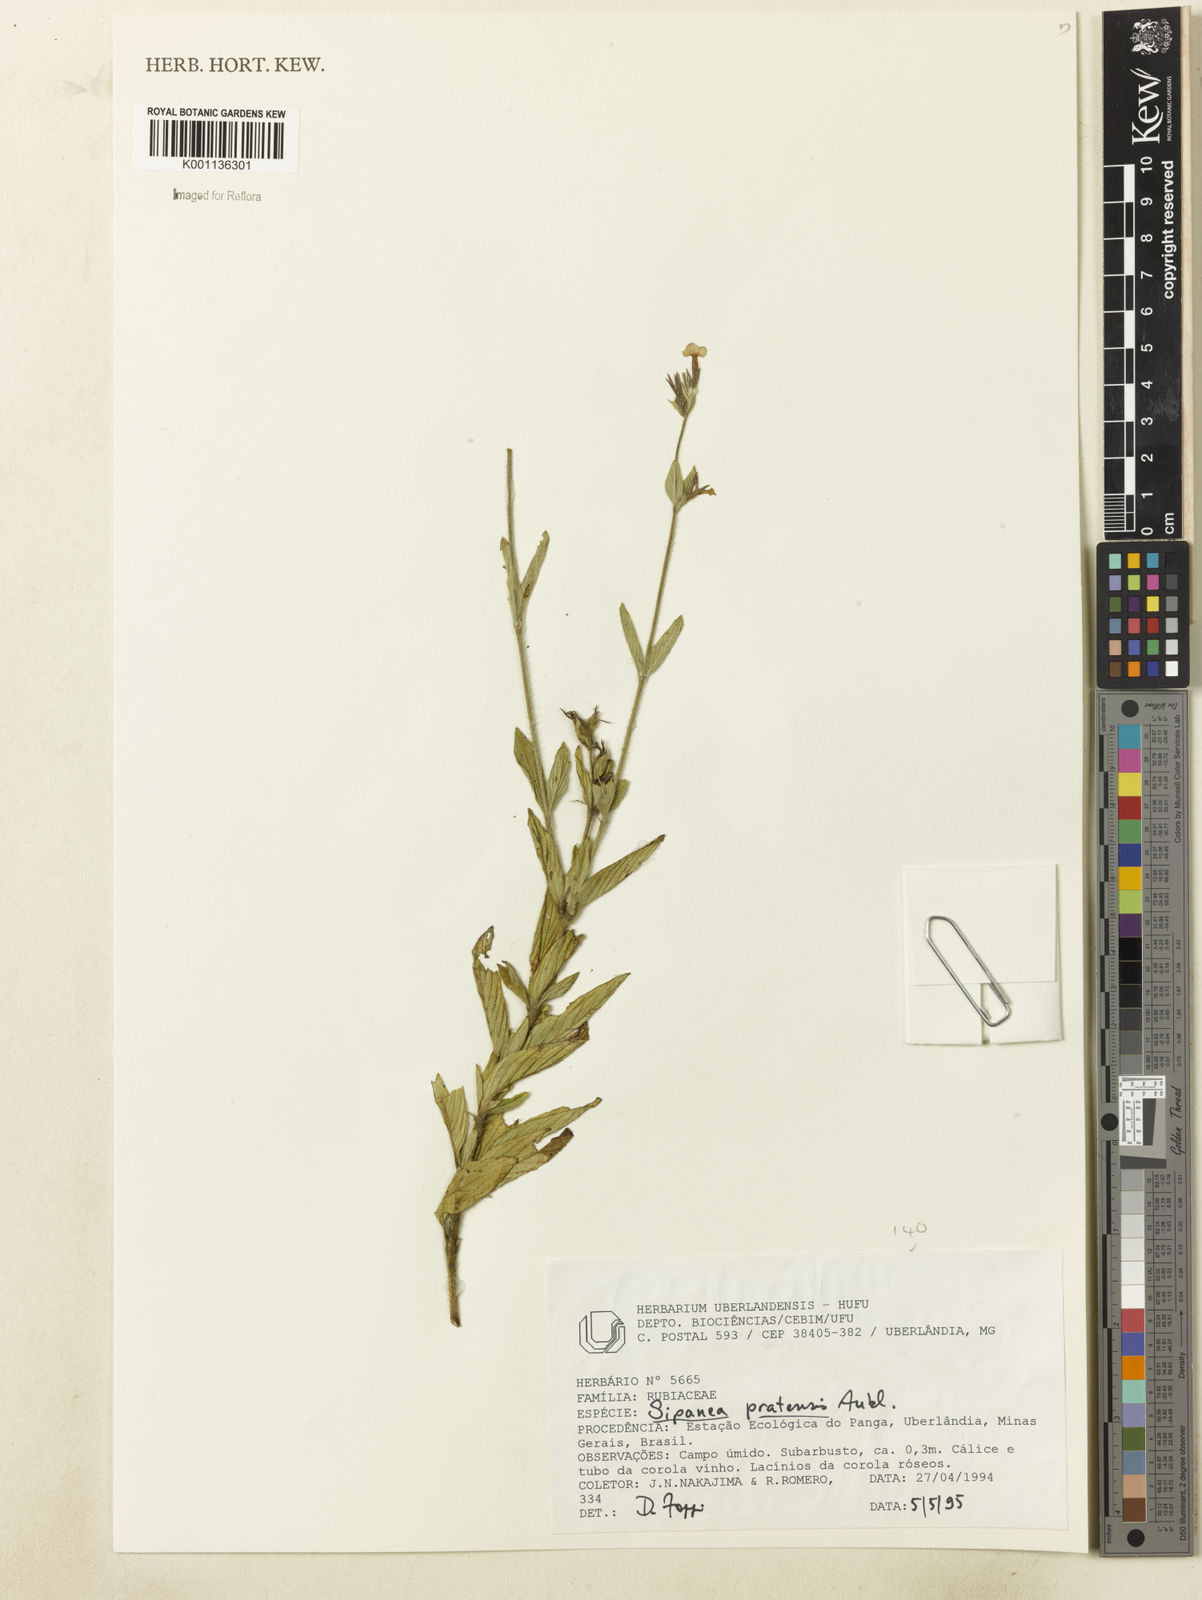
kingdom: Plantae
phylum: Tracheophyta
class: Magnoliopsida
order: Gentianales
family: Rubiaceae
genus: Sipanea
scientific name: Sipanea pratensis
